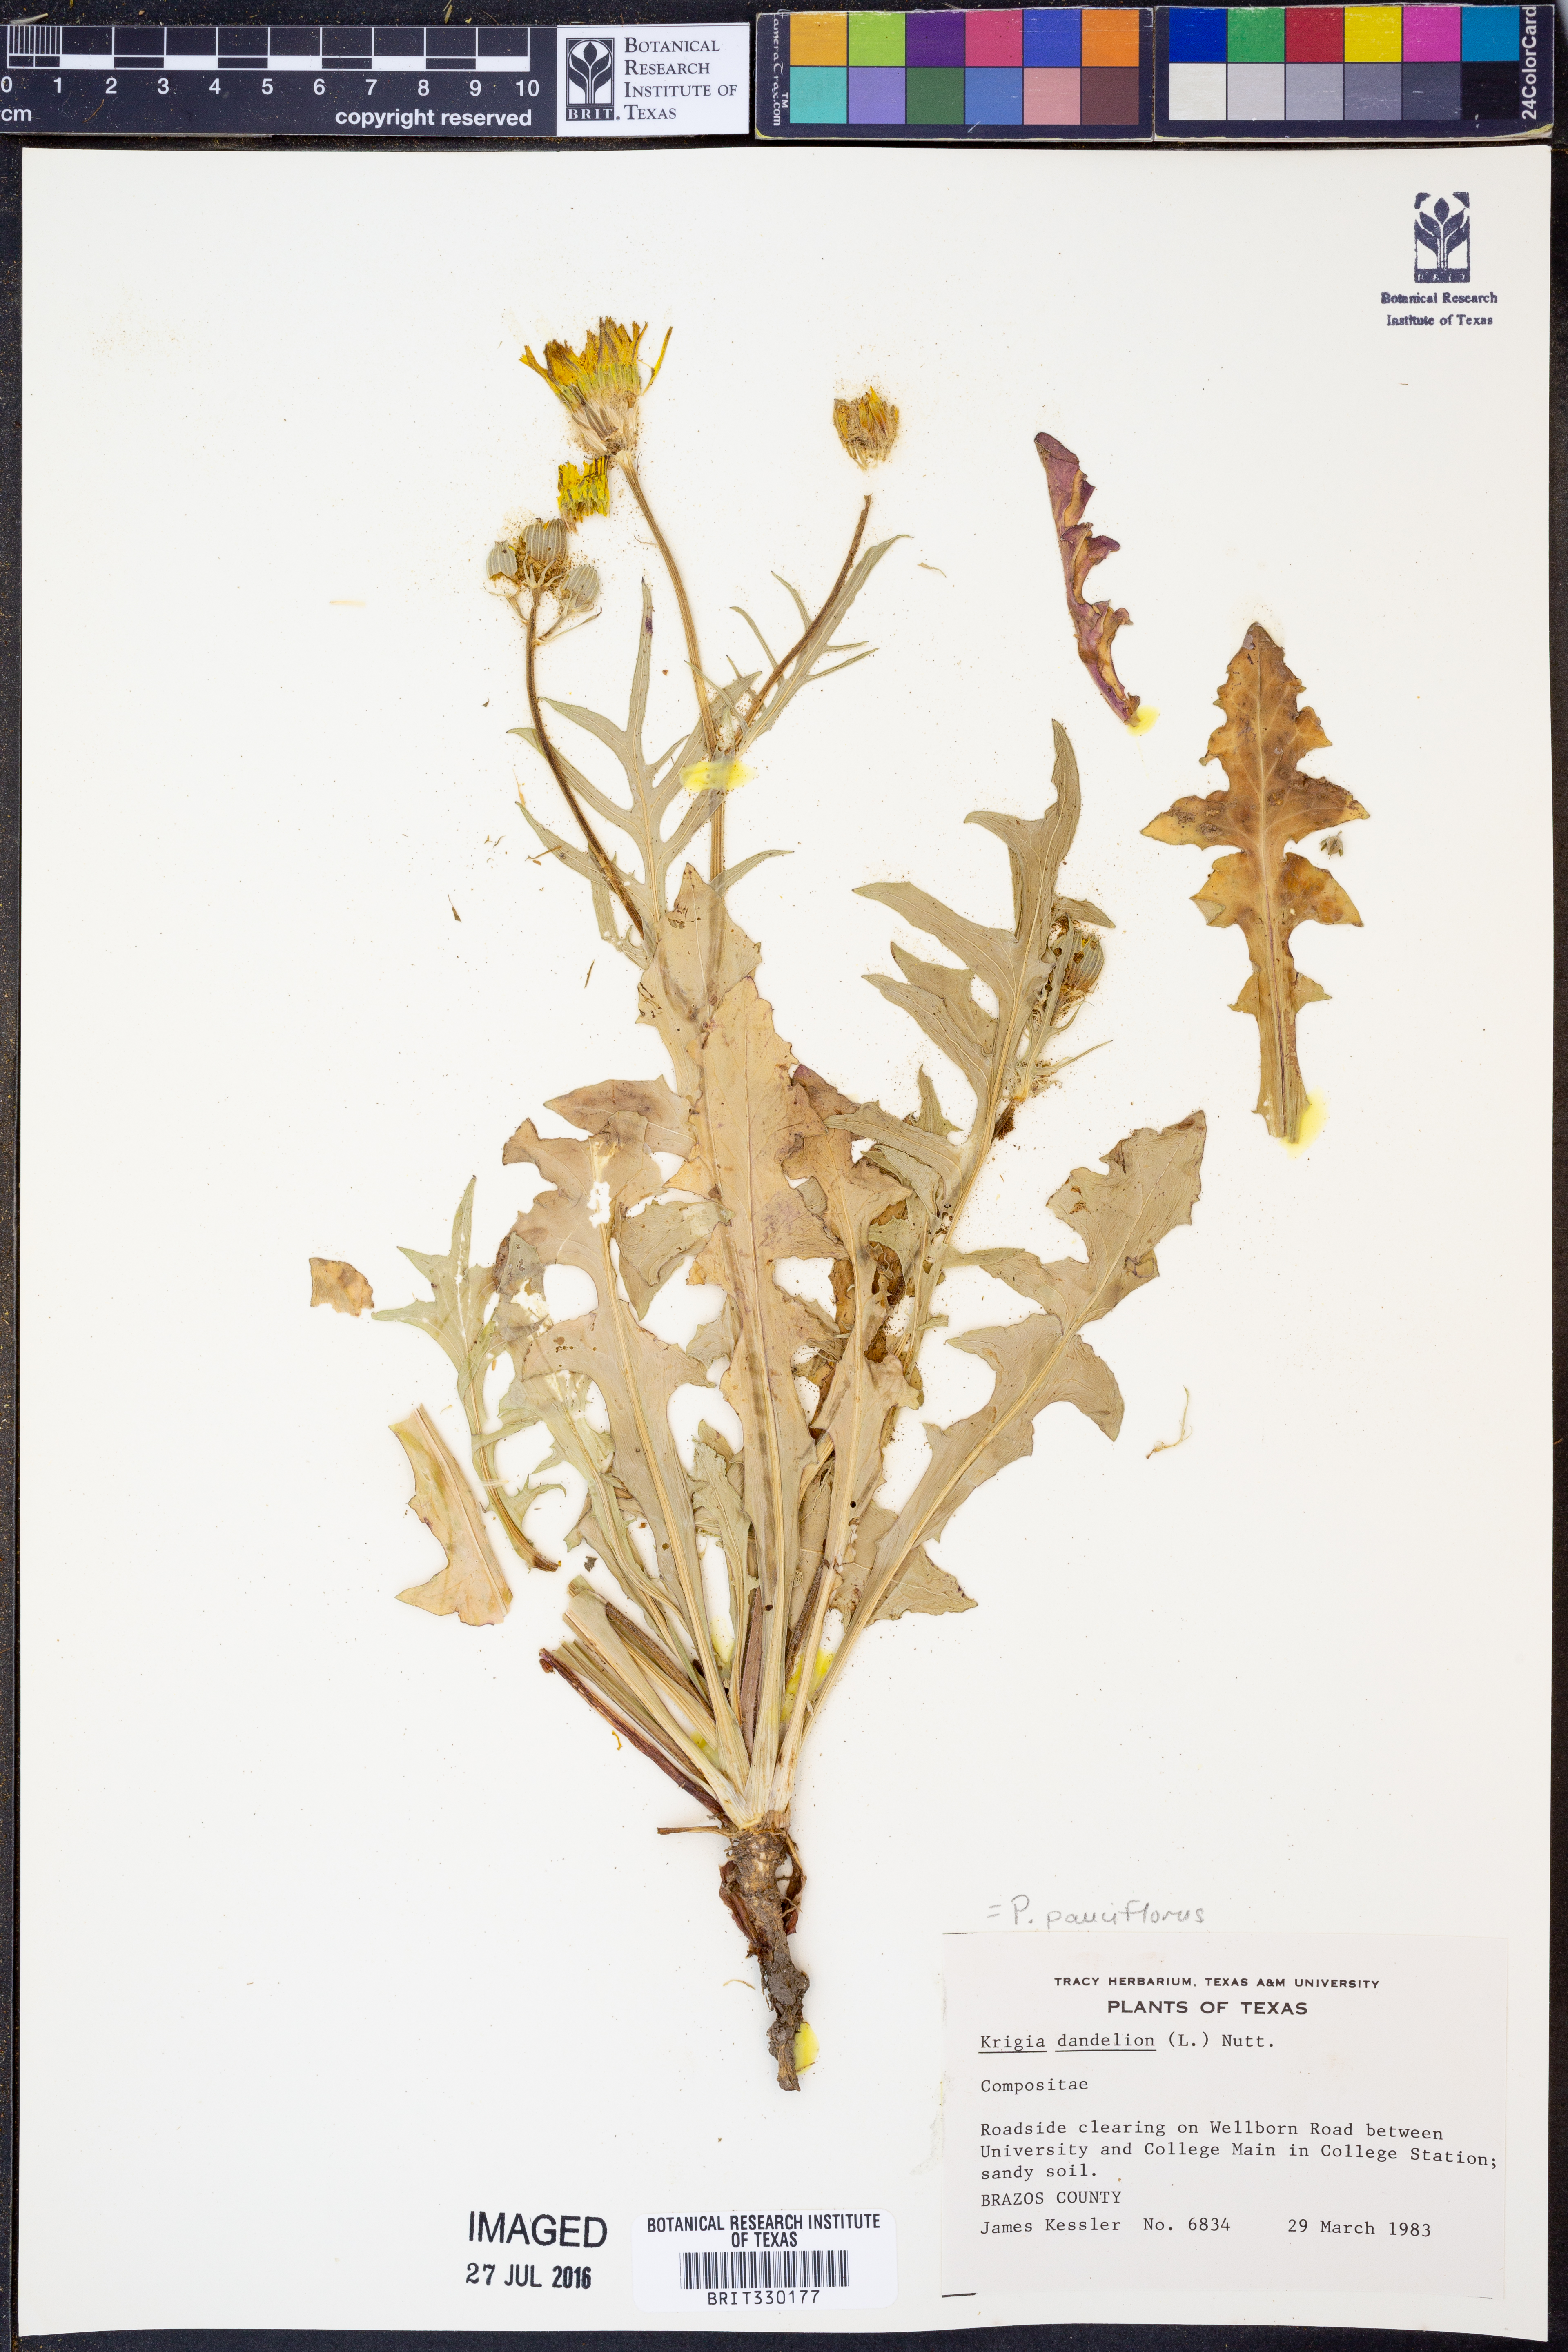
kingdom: Plantae
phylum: Tracheophyta
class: Magnoliopsida
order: Asterales
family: Asteraceae
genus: Pyrrhopappus
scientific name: Pyrrhopappus pauciflorus
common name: Texas false dandelion
